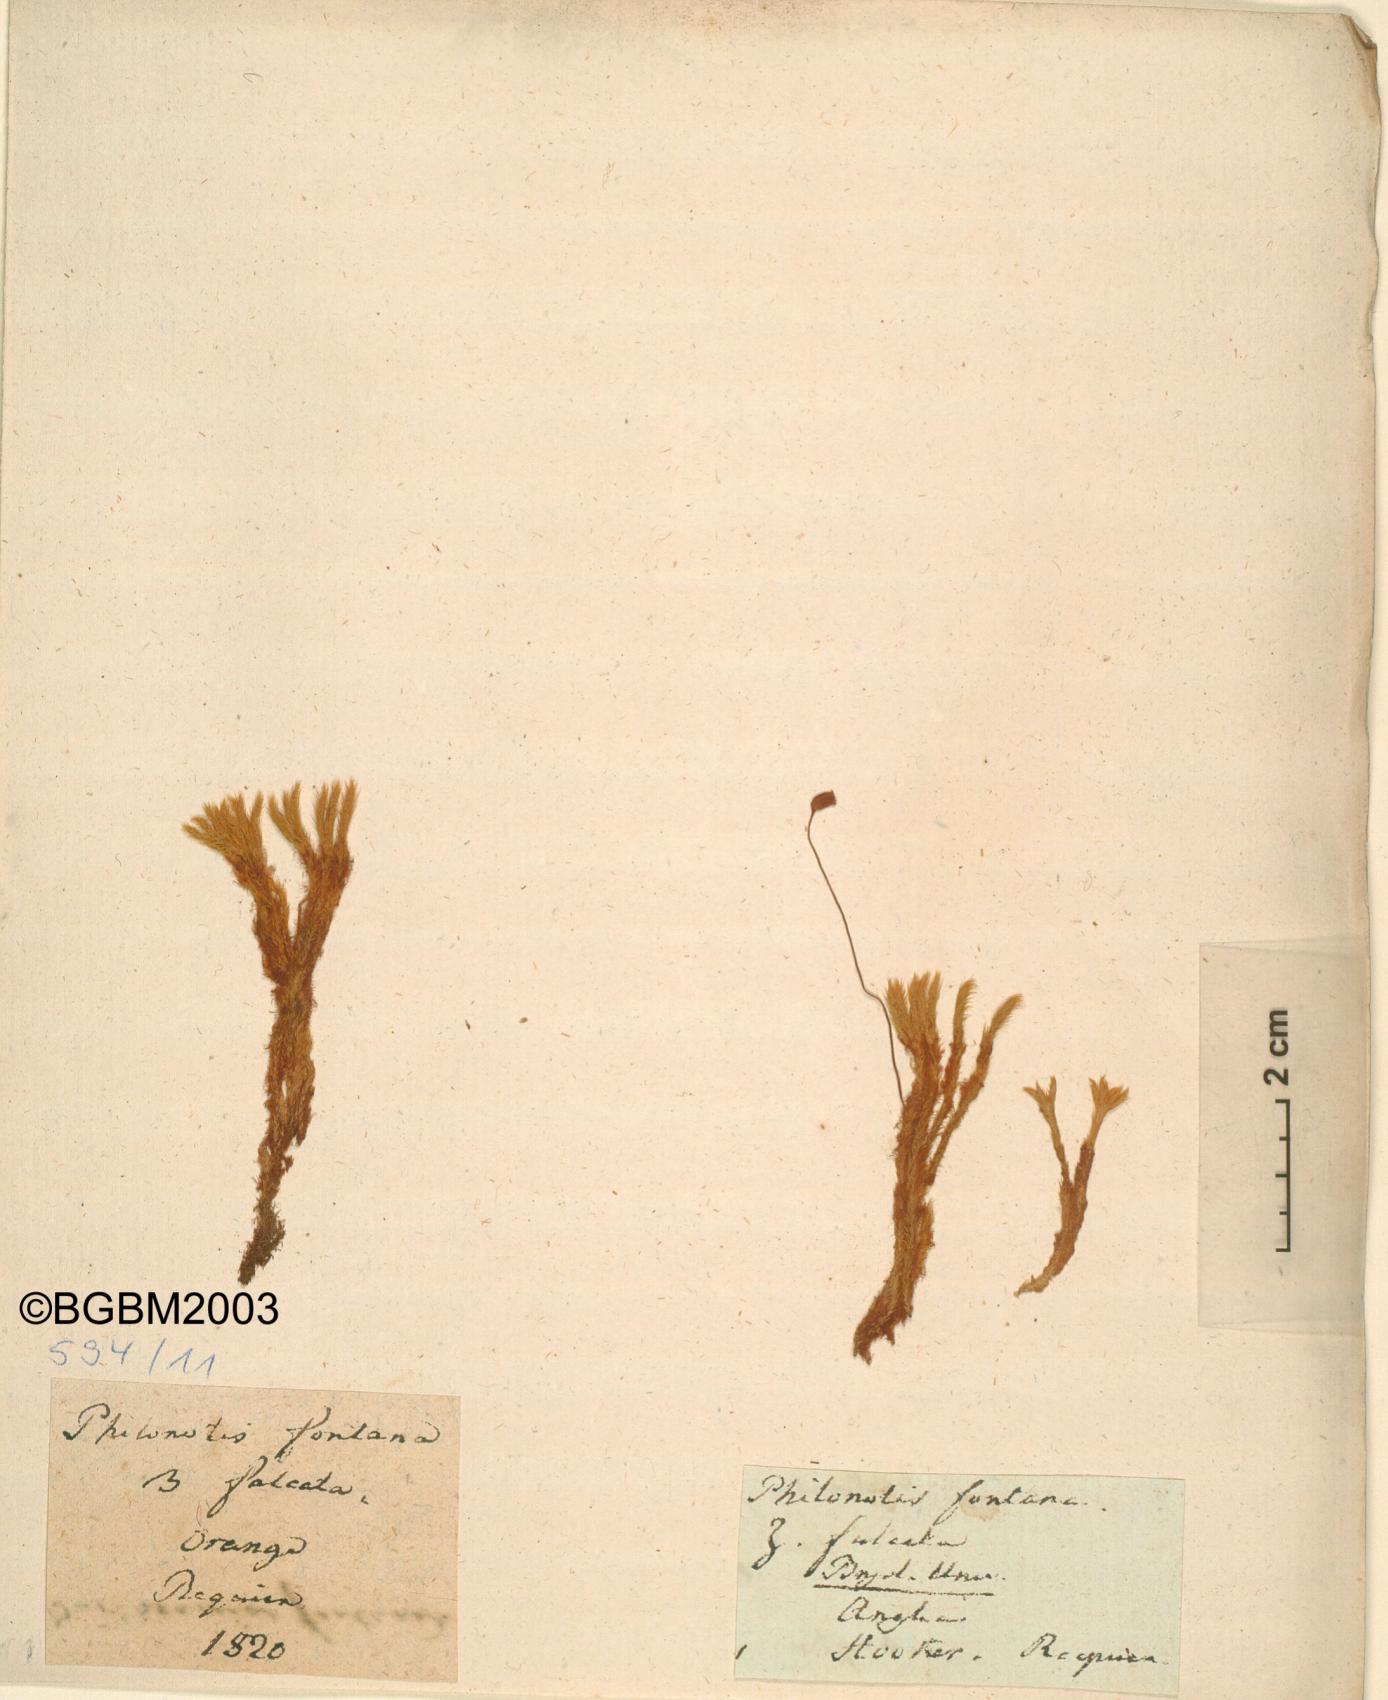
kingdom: Plantae
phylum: Bryophyta
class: Bryopsida
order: Bartramiales
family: Bartramiaceae
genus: Philonotis
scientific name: Philonotis fontana
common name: Fountain apple-moss
